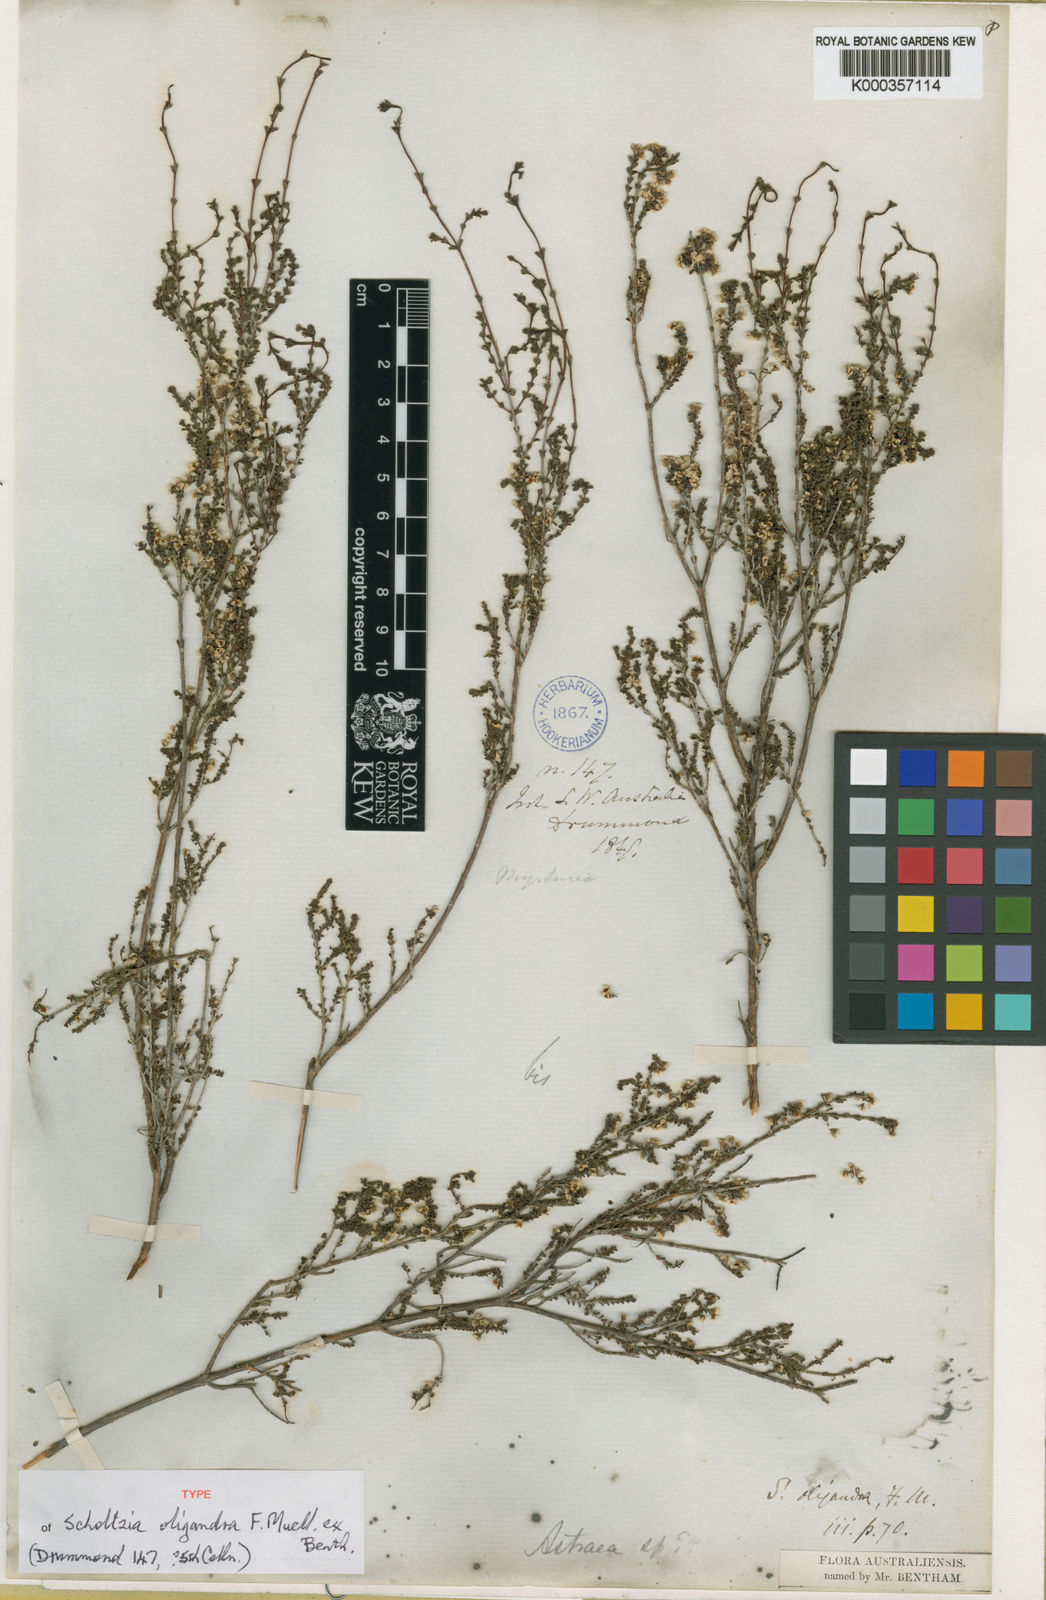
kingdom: Plantae
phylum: Tracheophyta
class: Magnoliopsida
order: Myrtales
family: Myrtaceae
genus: Scholtzia
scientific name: Scholtzia parviflora
